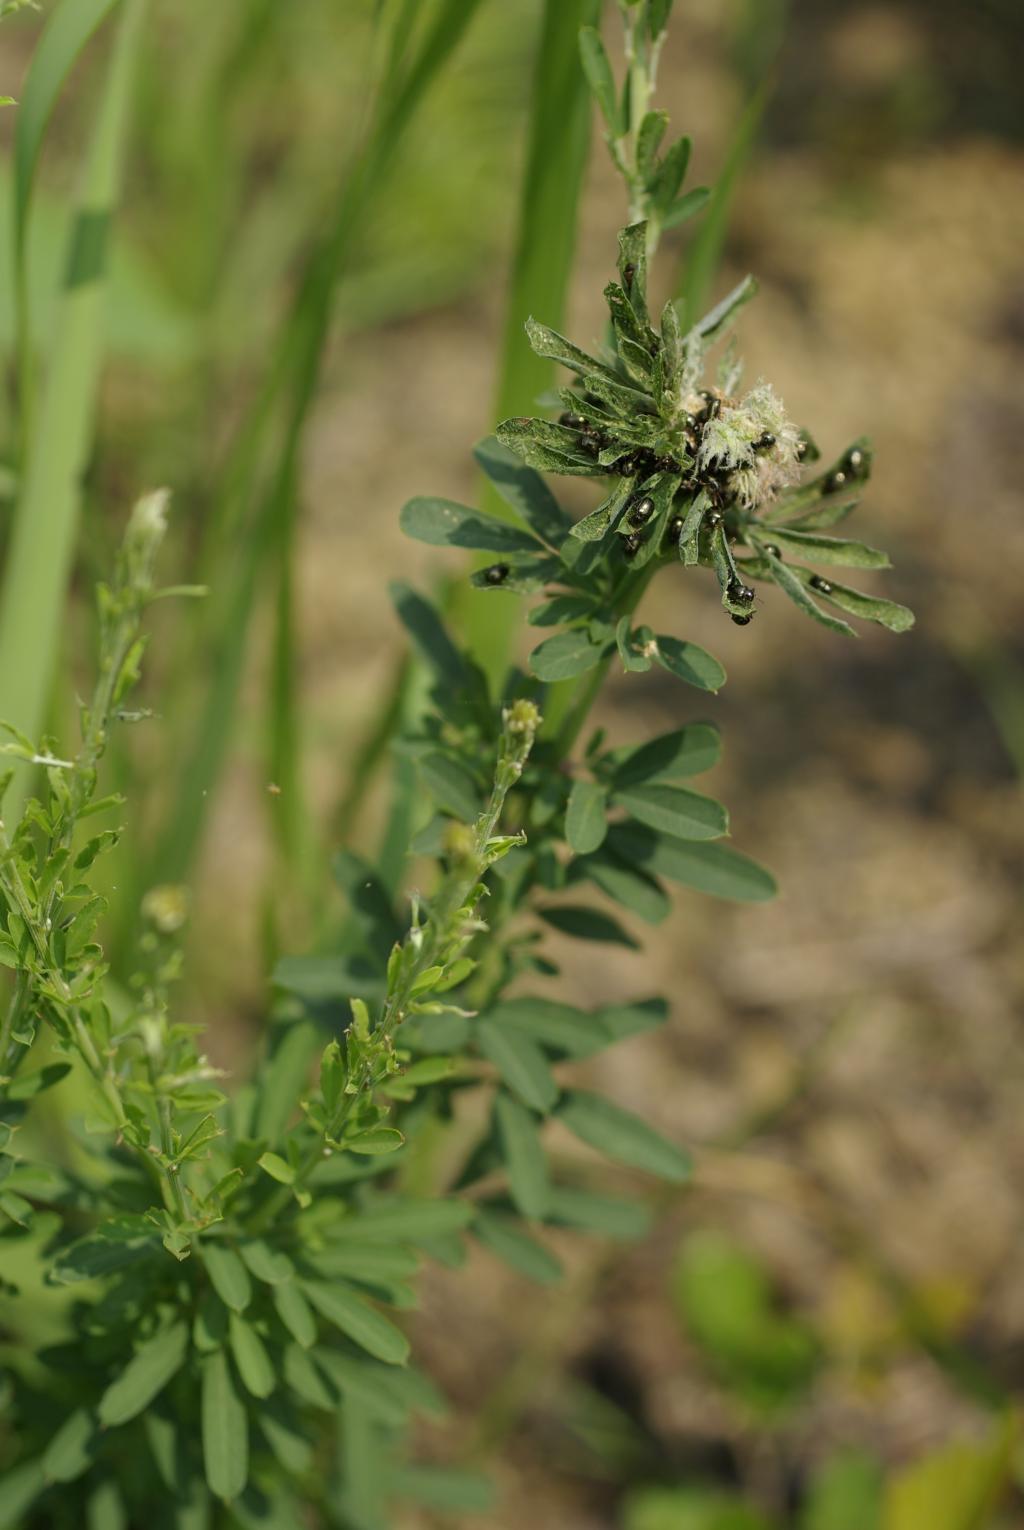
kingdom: Plantae
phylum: Tracheophyta
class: Magnoliopsida
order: Fabales
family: Fabaceae
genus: Lespedeza
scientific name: Lespedeza cuneata
